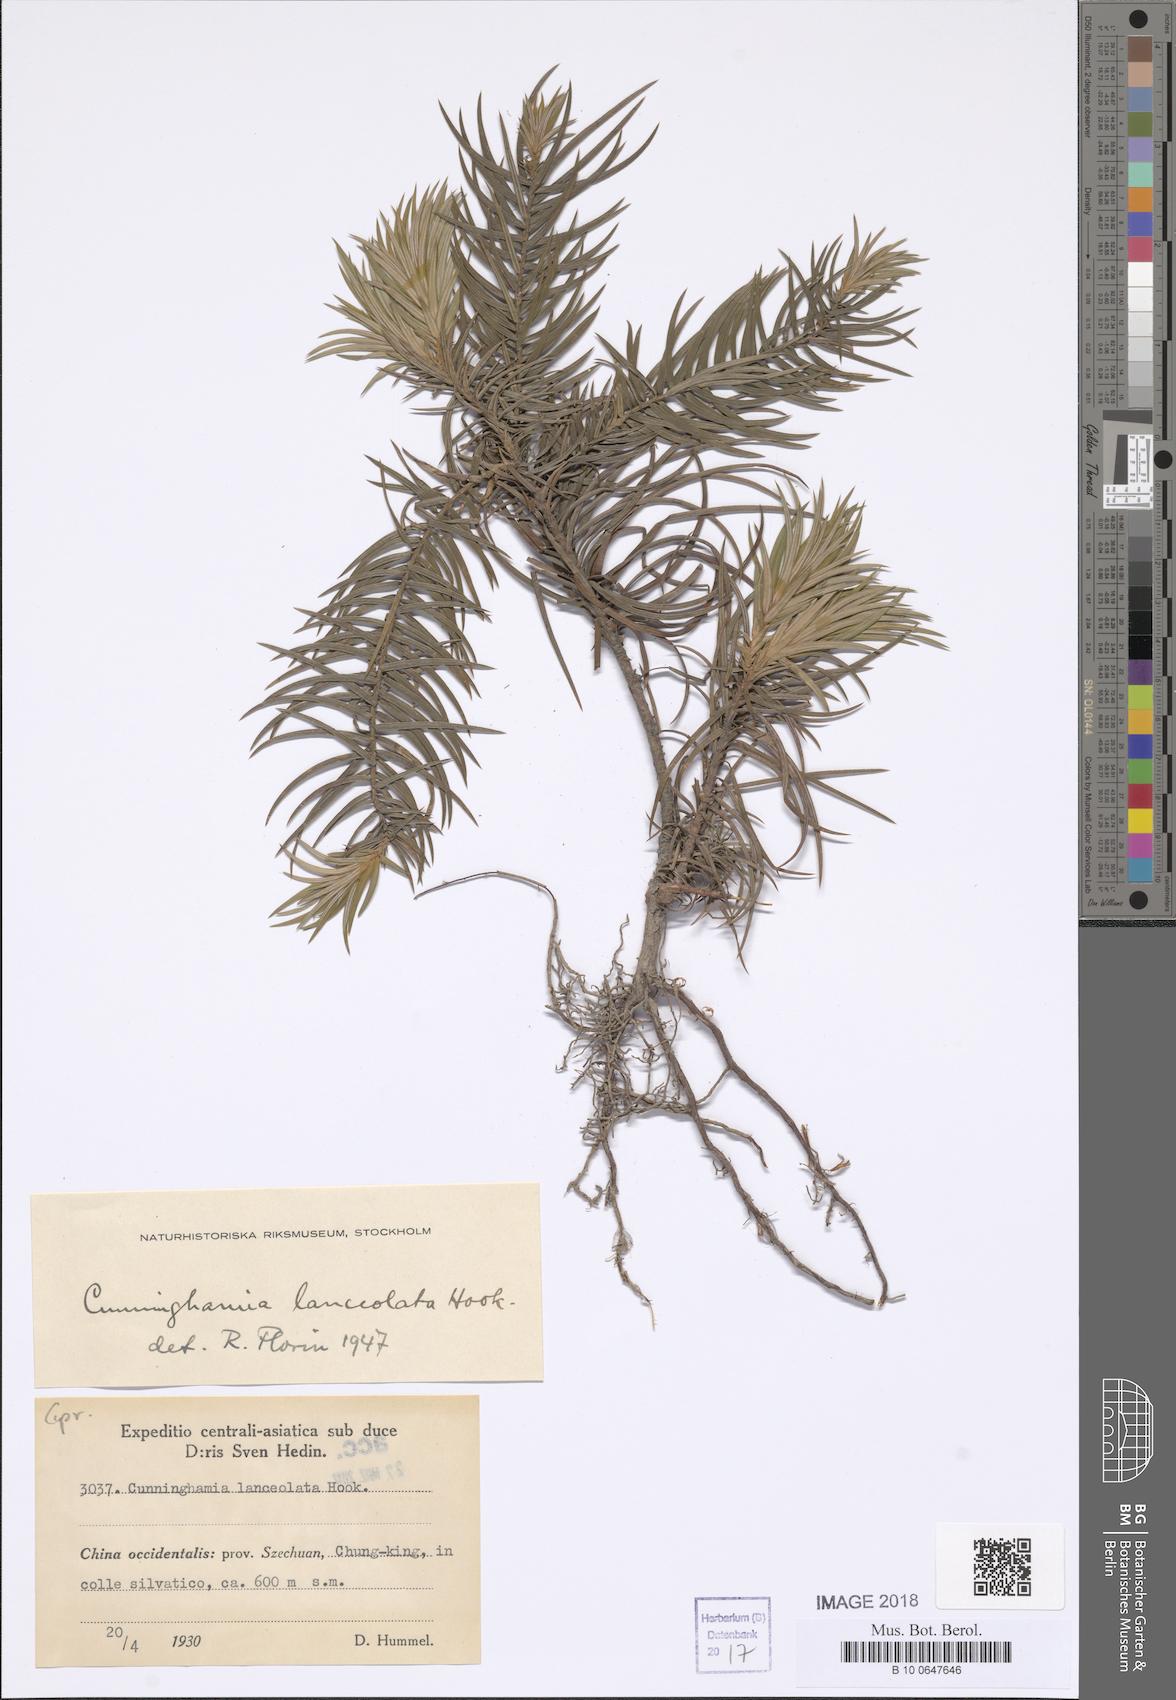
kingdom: Plantae
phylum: Tracheophyta
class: Pinopsida
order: Pinales
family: Cupressaceae
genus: Cunninghamia
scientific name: Cunninghamia lanceolata
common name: Chinese fir
